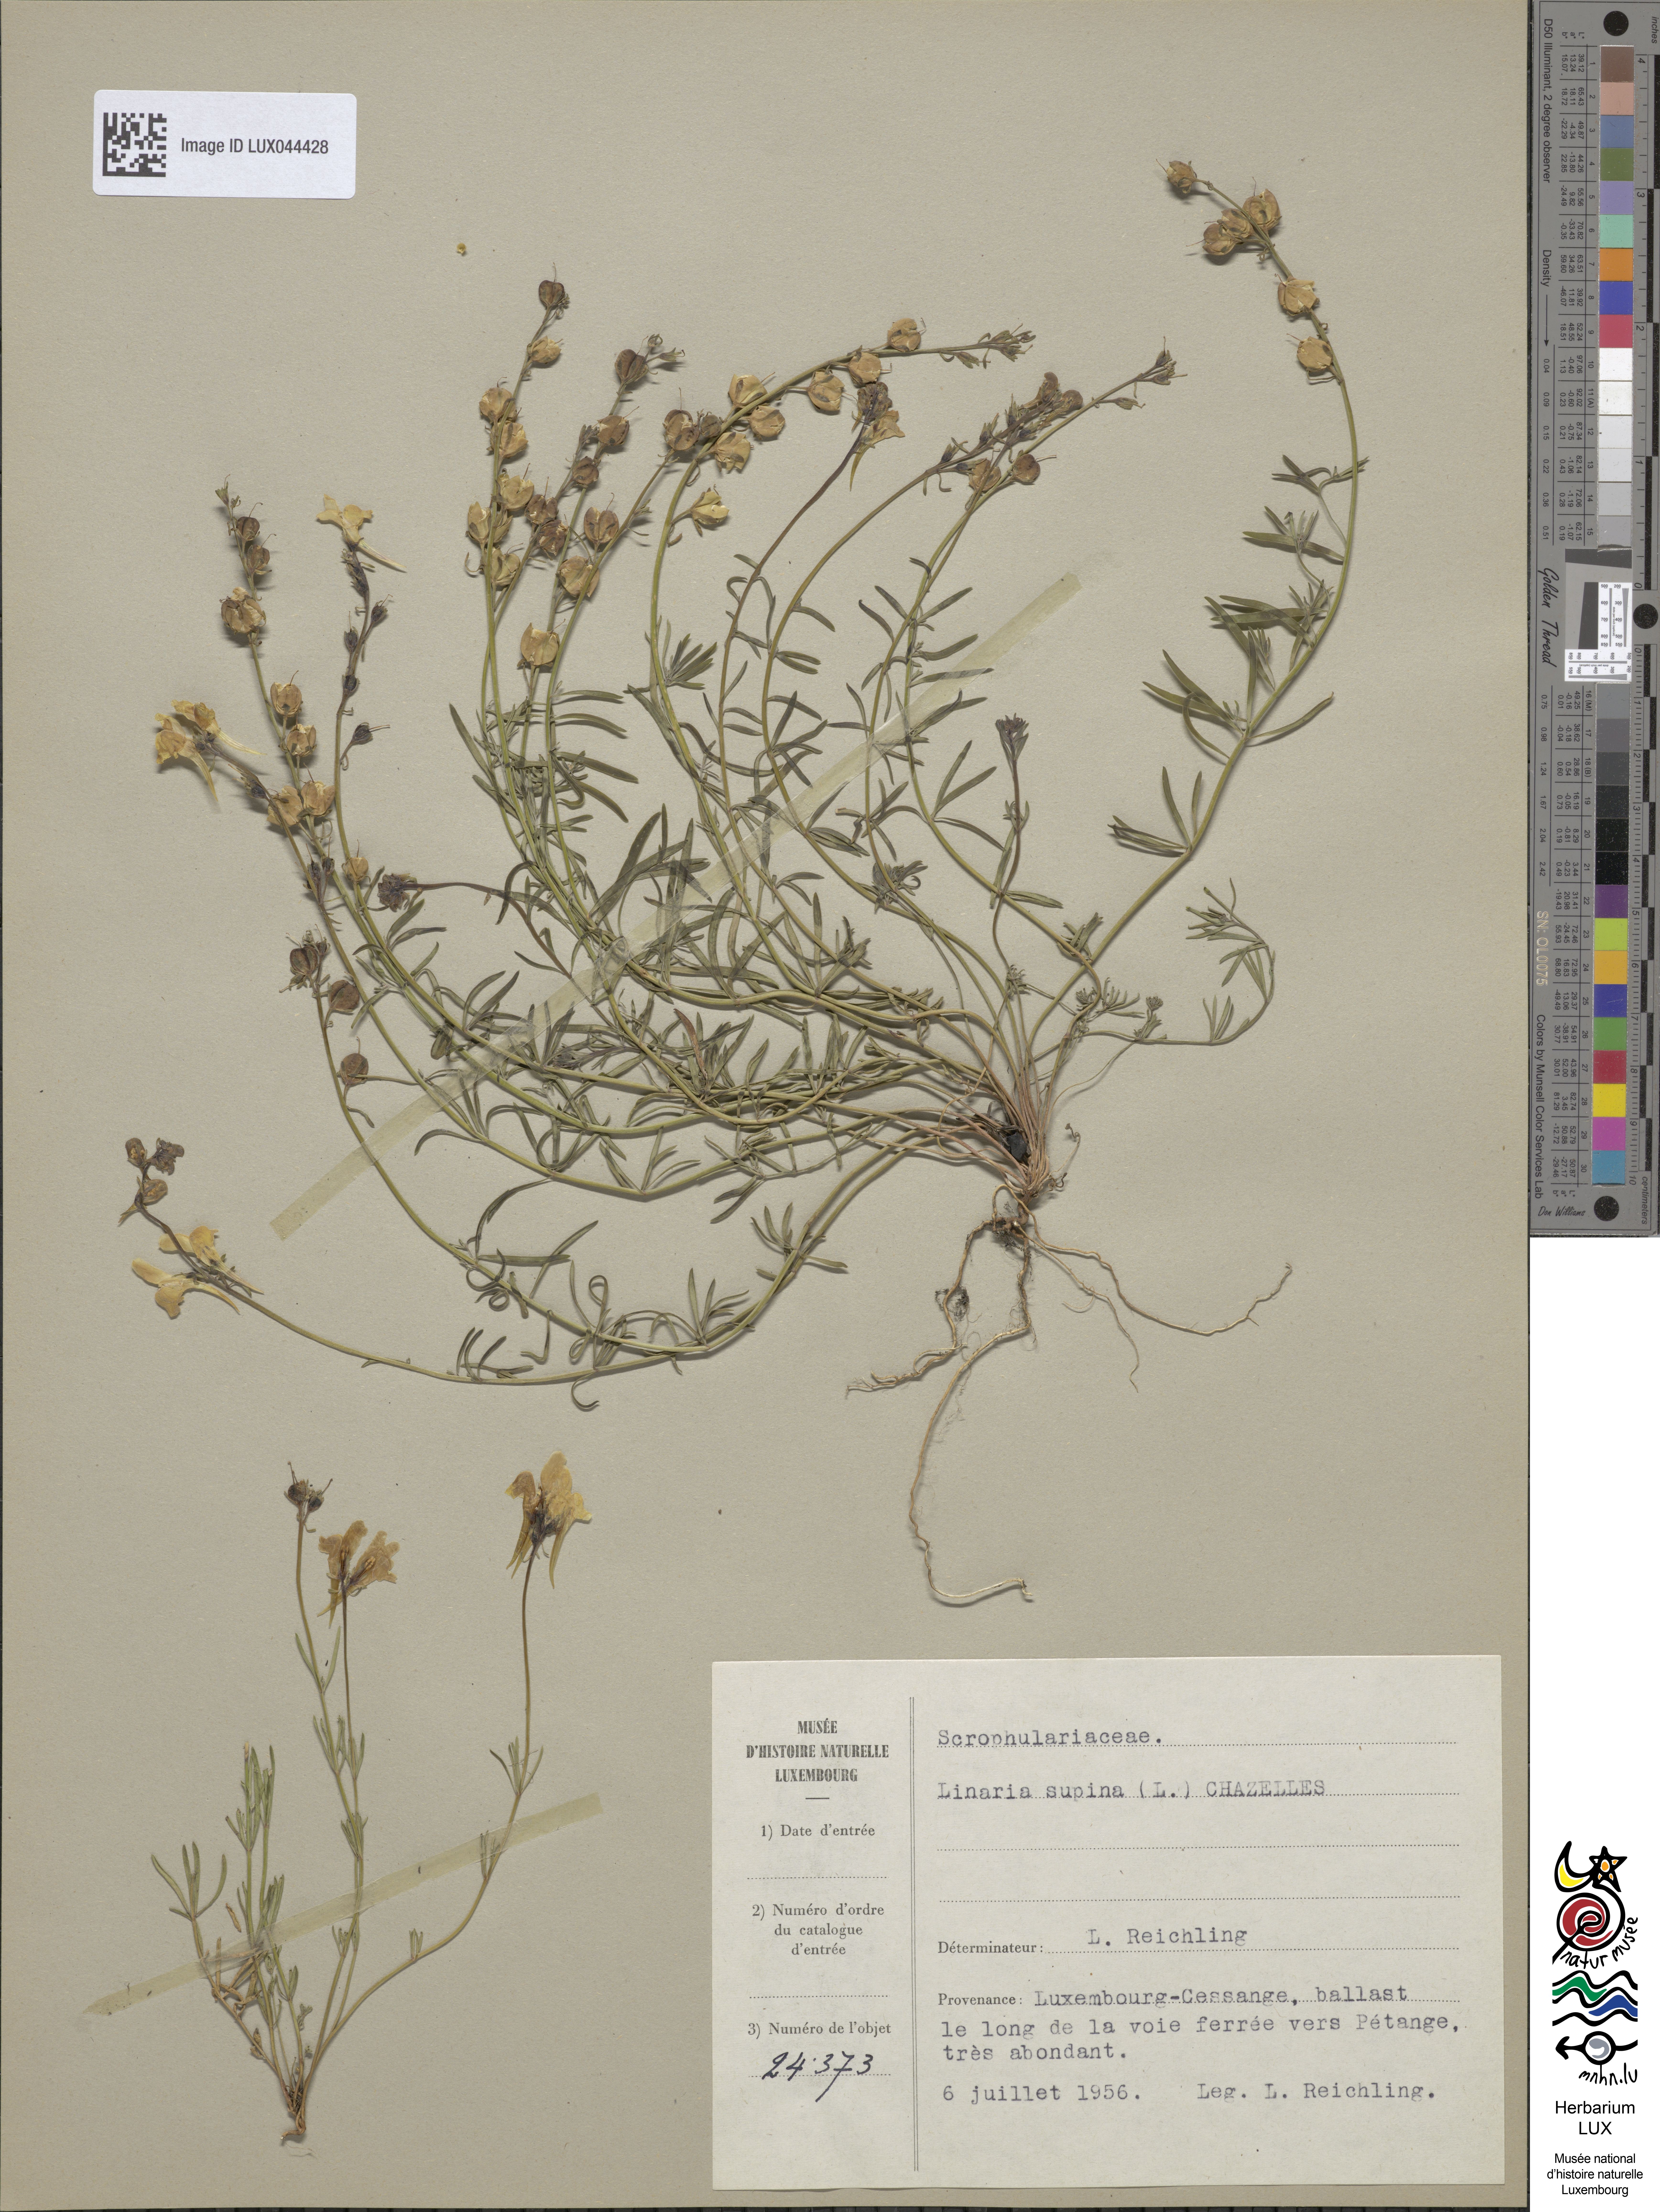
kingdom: Plantae
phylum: Tracheophyta
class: Magnoliopsida
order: Lamiales
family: Plantaginaceae
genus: Linaria
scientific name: Linaria supina
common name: Prostrate toadflax
